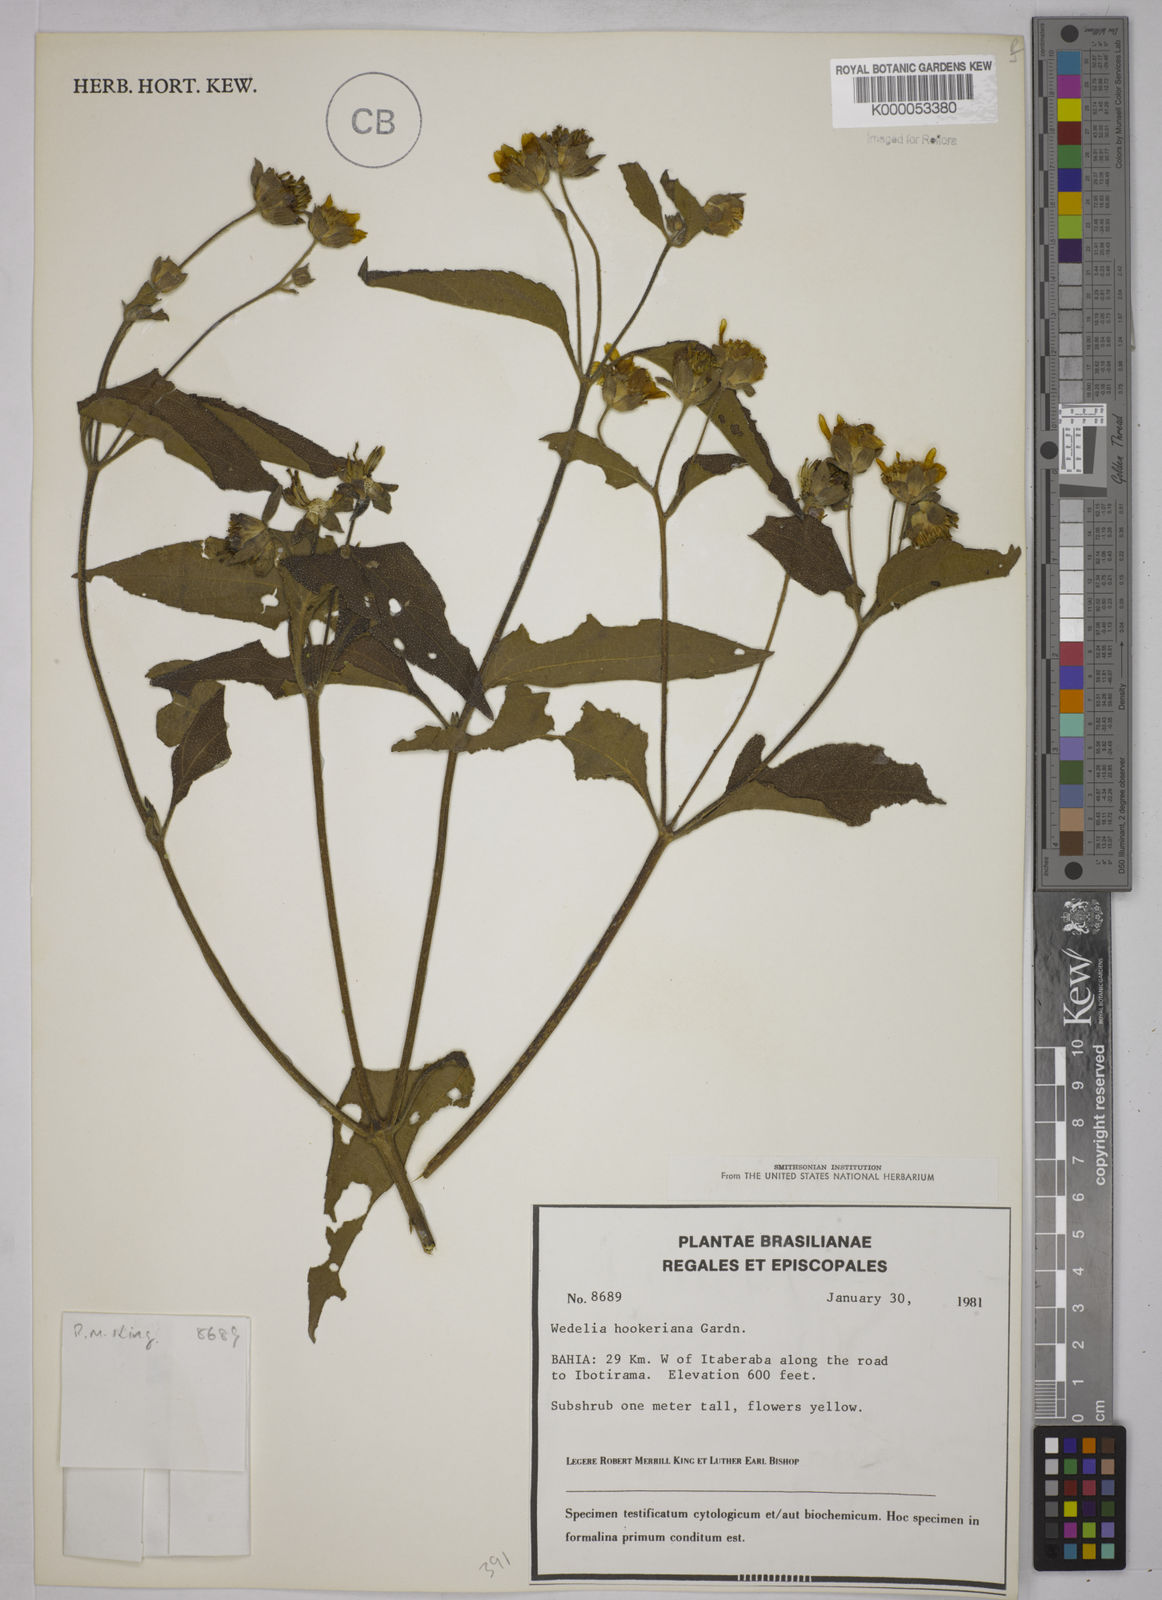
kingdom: Plantae
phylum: Tracheophyta
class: Magnoliopsida
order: Asterales
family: Asteraceae
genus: Wedelia
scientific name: Wedelia hookeriana
